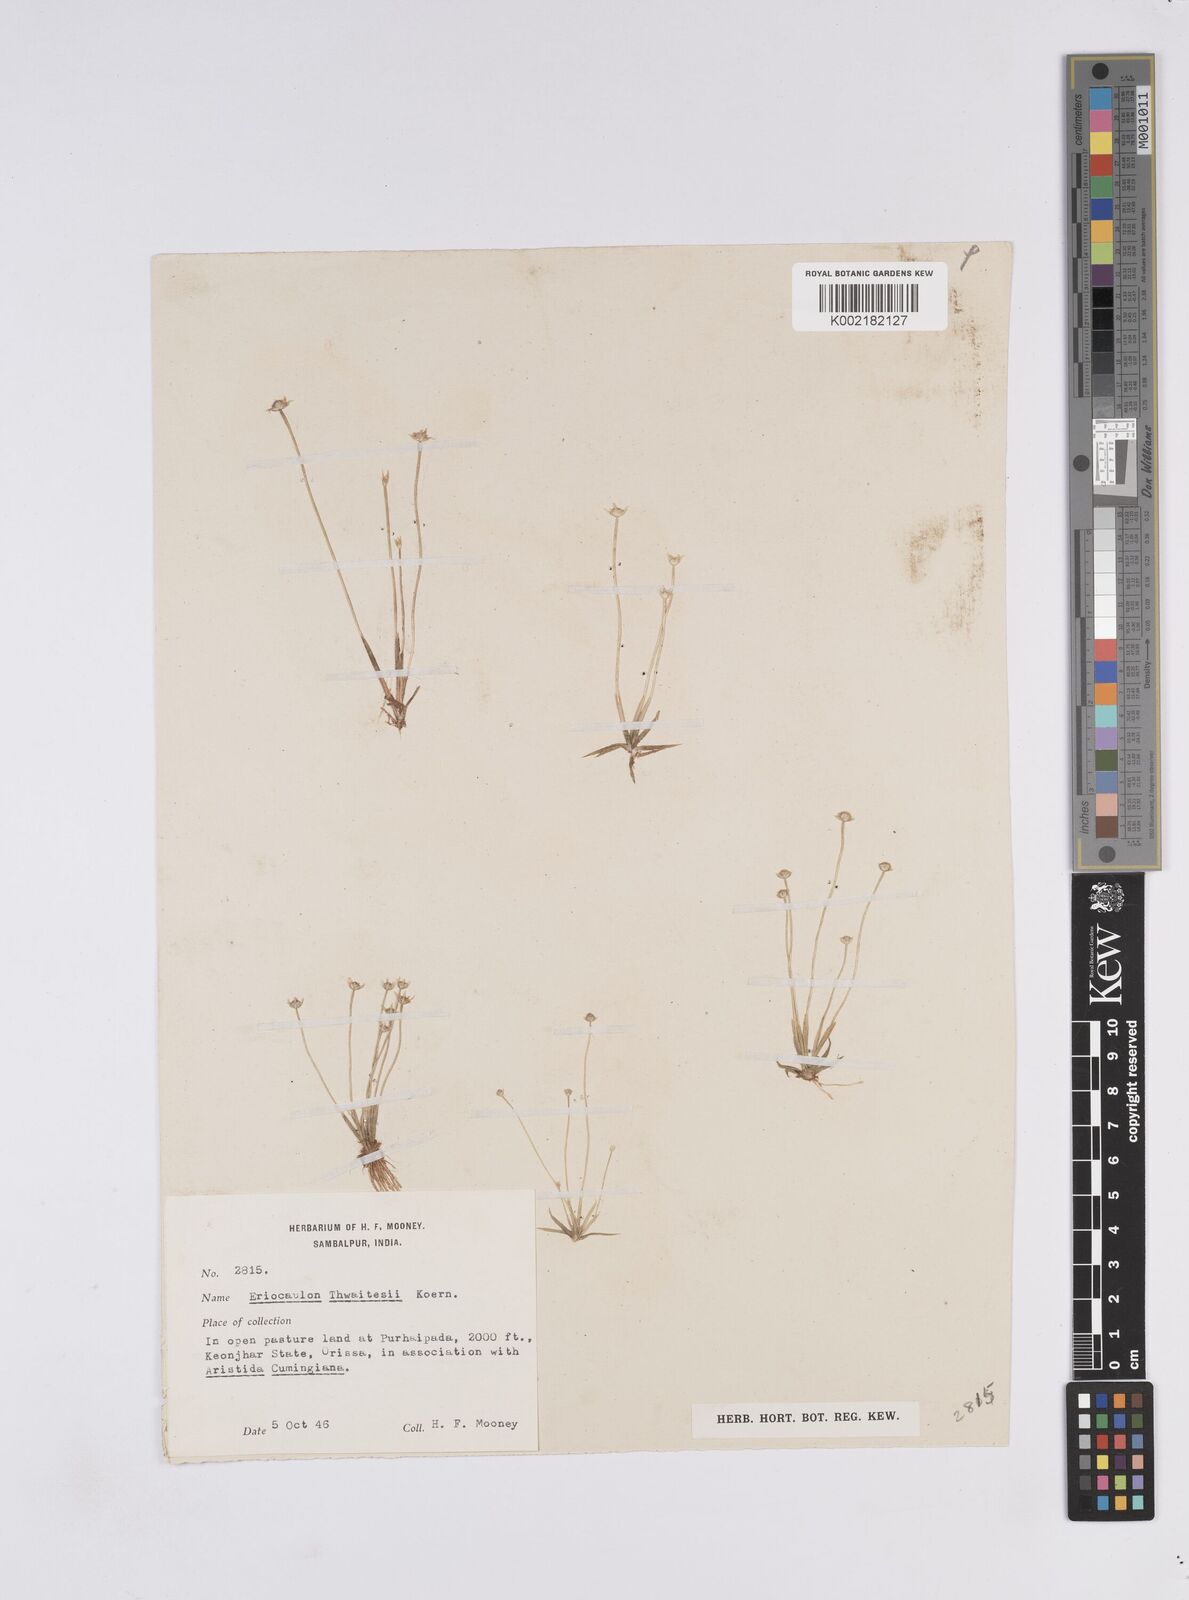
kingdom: Plantae
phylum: Tracheophyta
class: Liliopsida
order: Poales
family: Eriocaulaceae
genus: Eriocaulon
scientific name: Eriocaulon
